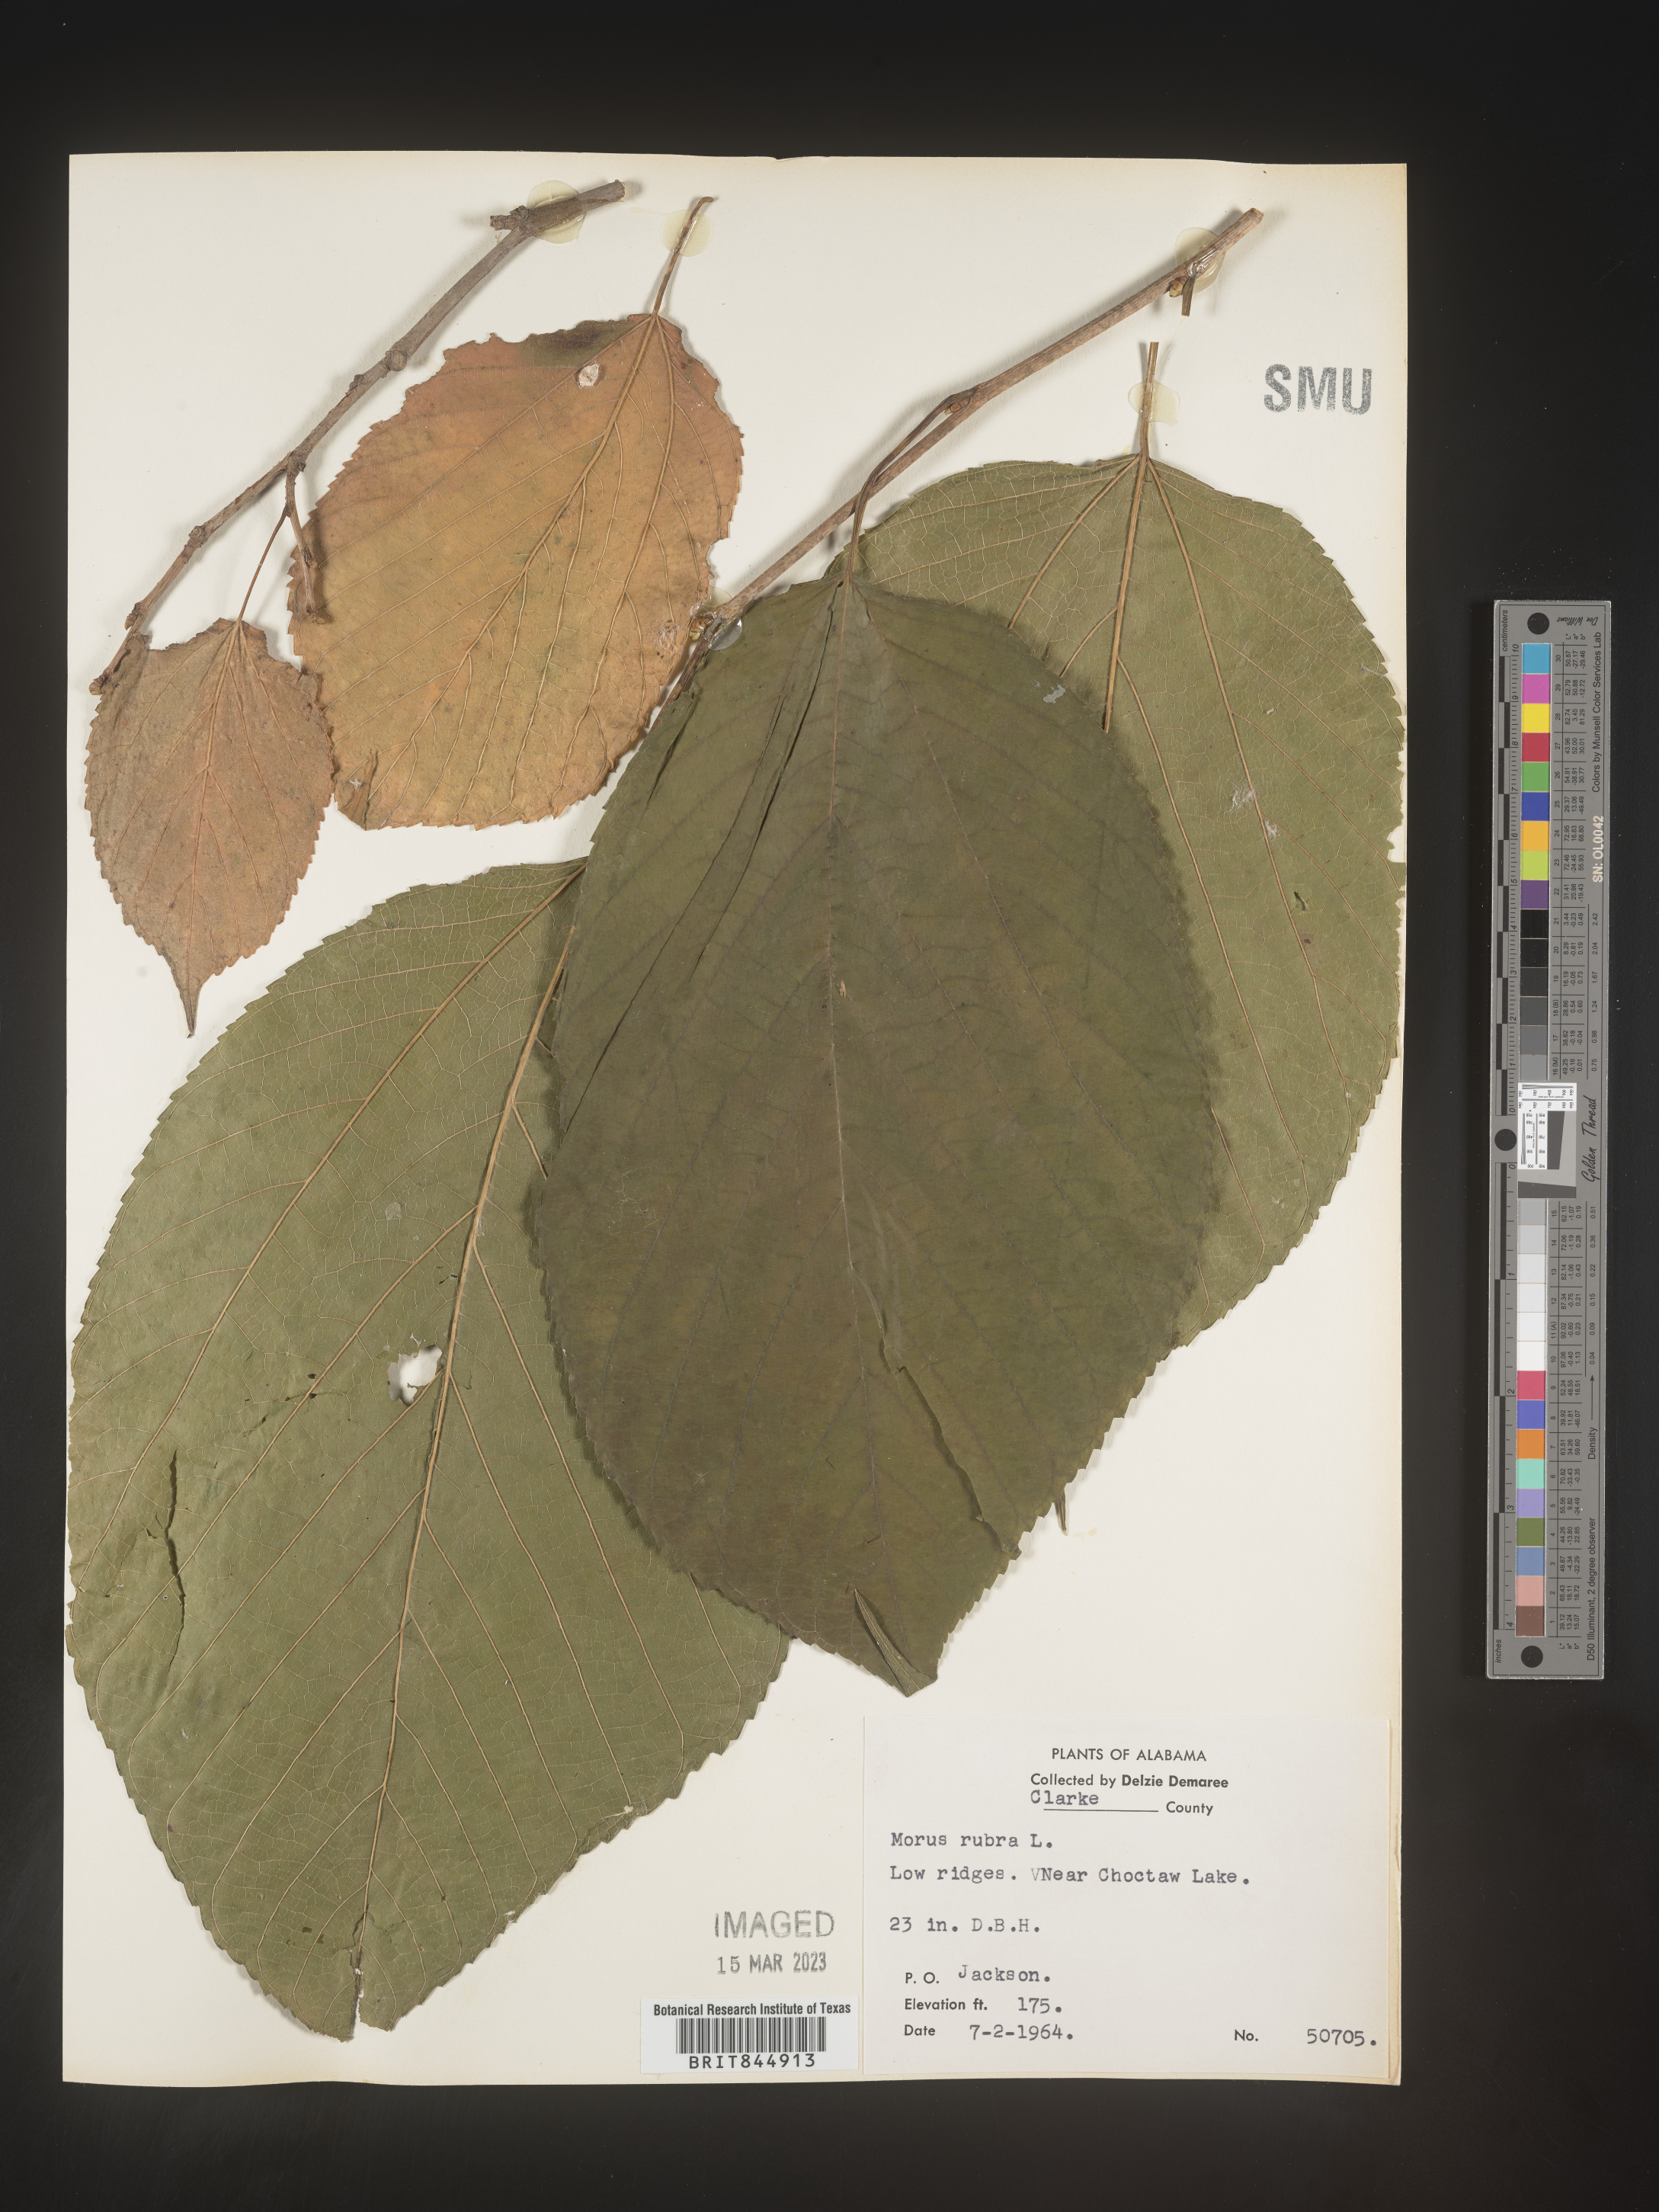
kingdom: Plantae
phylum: Tracheophyta
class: Magnoliopsida
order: Rosales
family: Moraceae
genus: Morus
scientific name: Morus rubra
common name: Red mulberry
